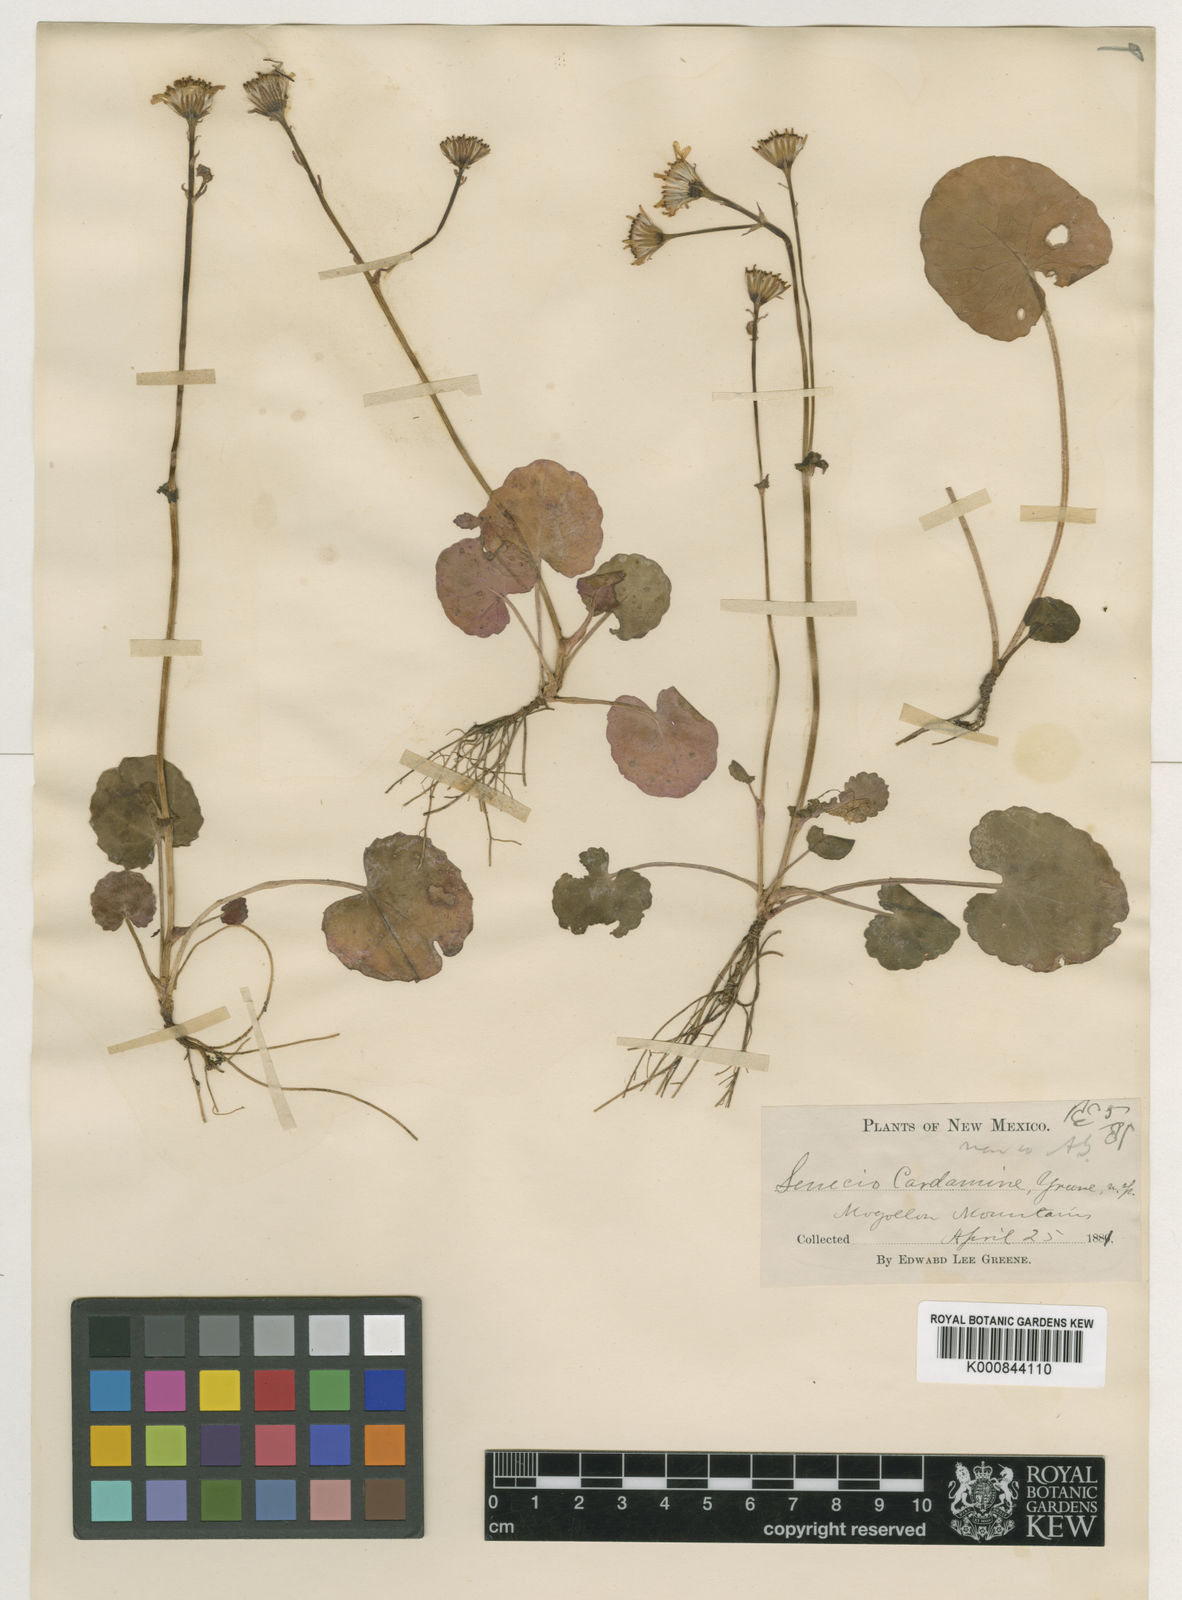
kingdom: Plantae
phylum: Tracheophyta
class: Magnoliopsida
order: Asterales
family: Asteraceae
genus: Packera
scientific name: Packera
